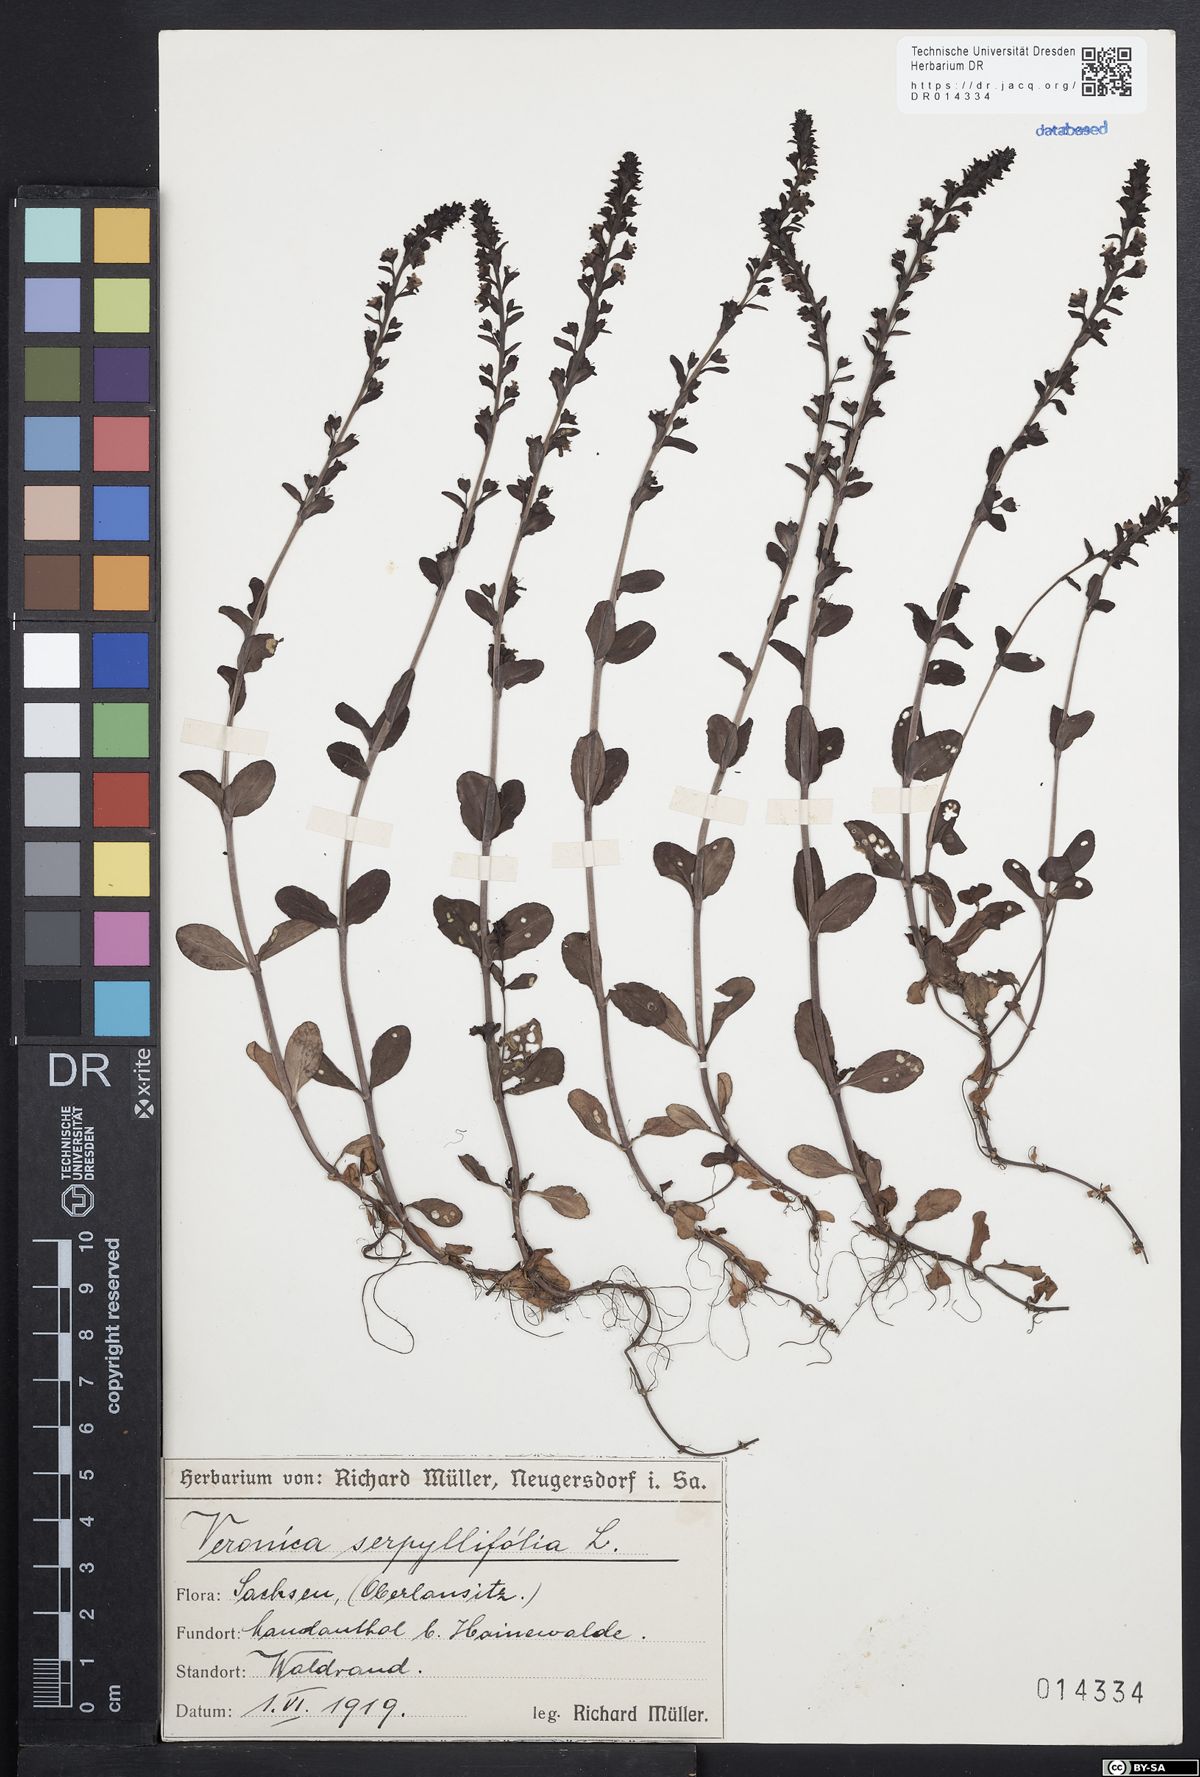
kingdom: Plantae
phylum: Tracheophyta
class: Magnoliopsida
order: Lamiales
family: Plantaginaceae
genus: Veronica
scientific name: Veronica serpyllifolia
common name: Thyme-leaved speedwell
